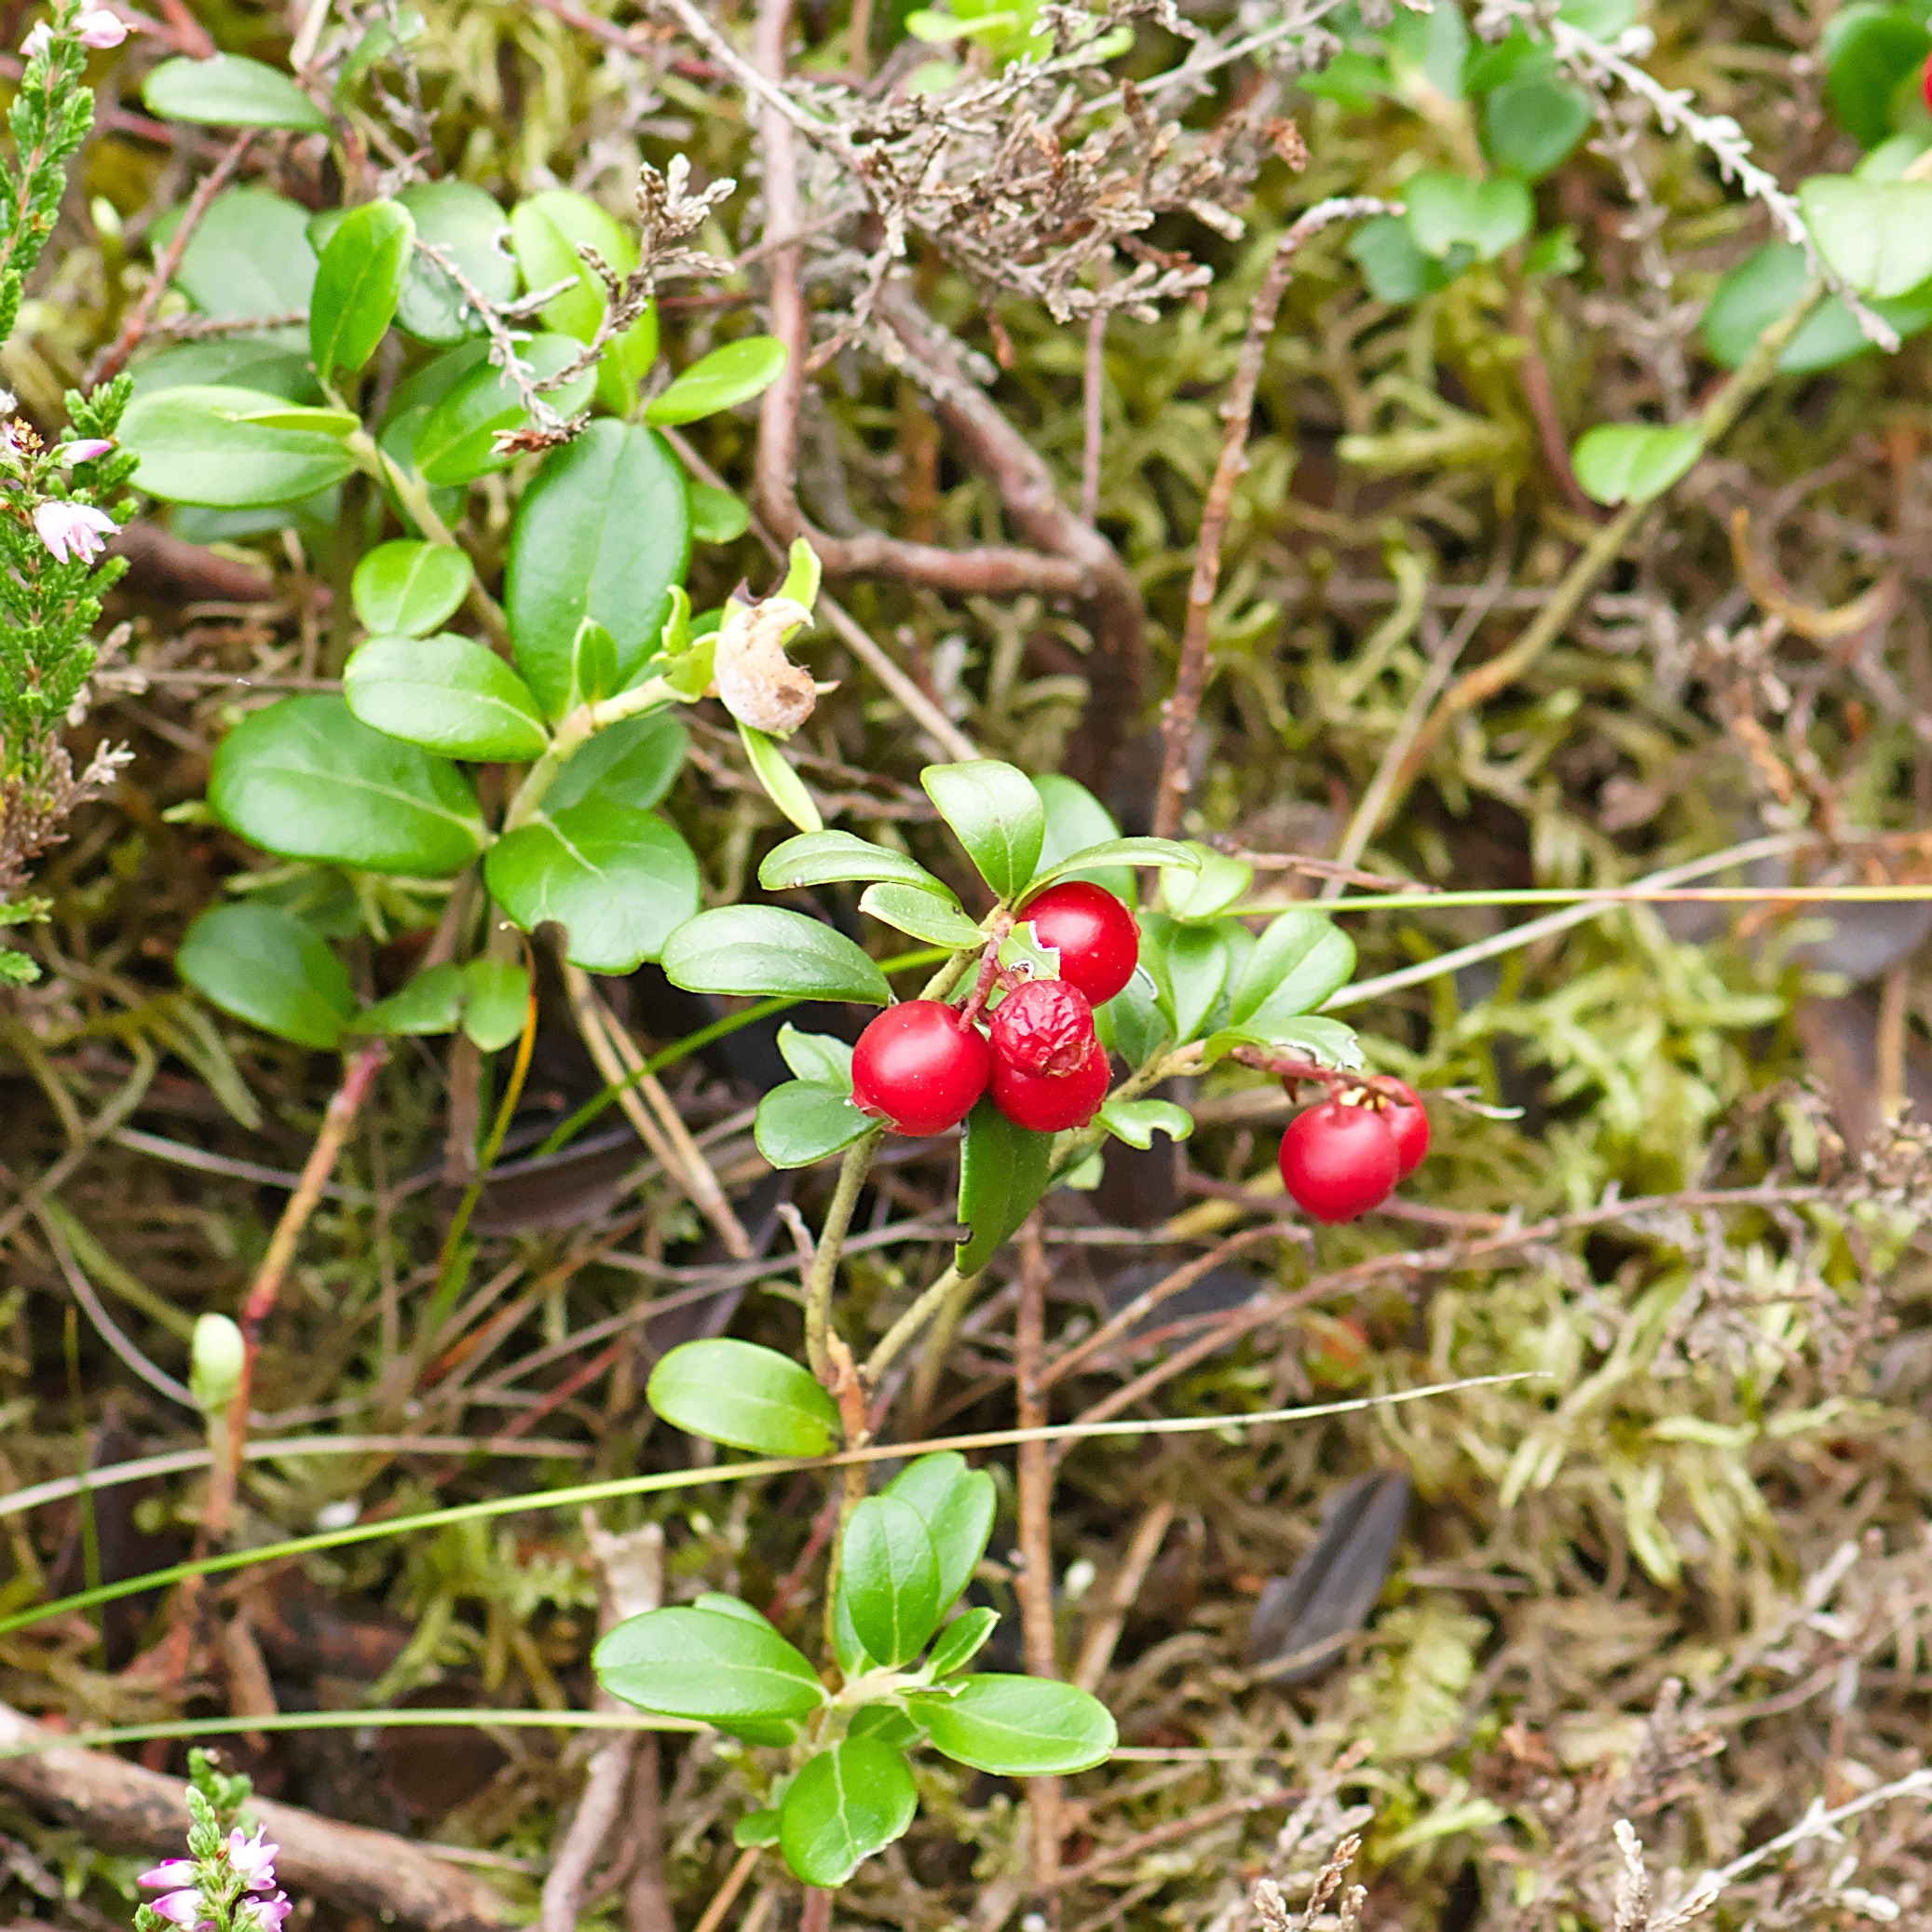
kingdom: Plantae
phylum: Tracheophyta
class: Magnoliopsida
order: Ericales
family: Ericaceae
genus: Vaccinium
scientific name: Vaccinium vitis-idaea
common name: Tyttebær
